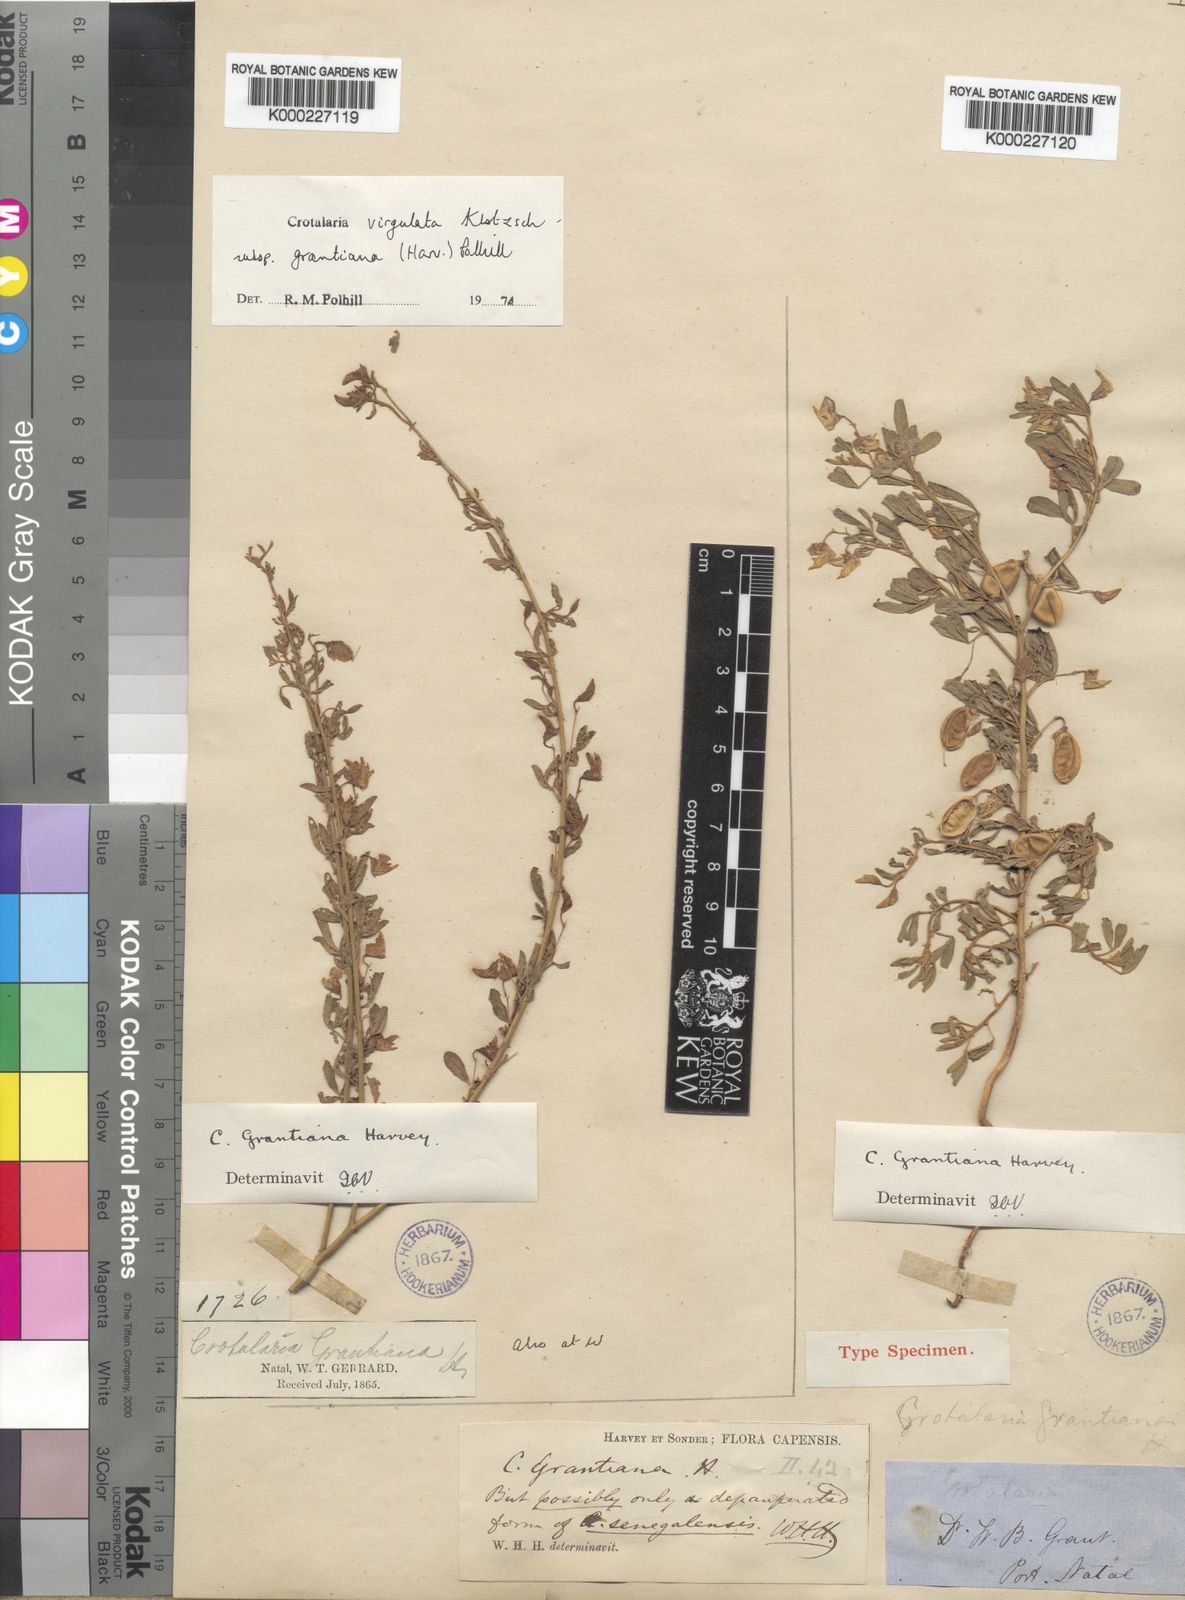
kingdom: Plantae
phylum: Tracheophyta
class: Magnoliopsida
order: Fabales
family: Fabaceae
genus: Crotalaria
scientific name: Crotalaria virgulata
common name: Thicket rattlebox
